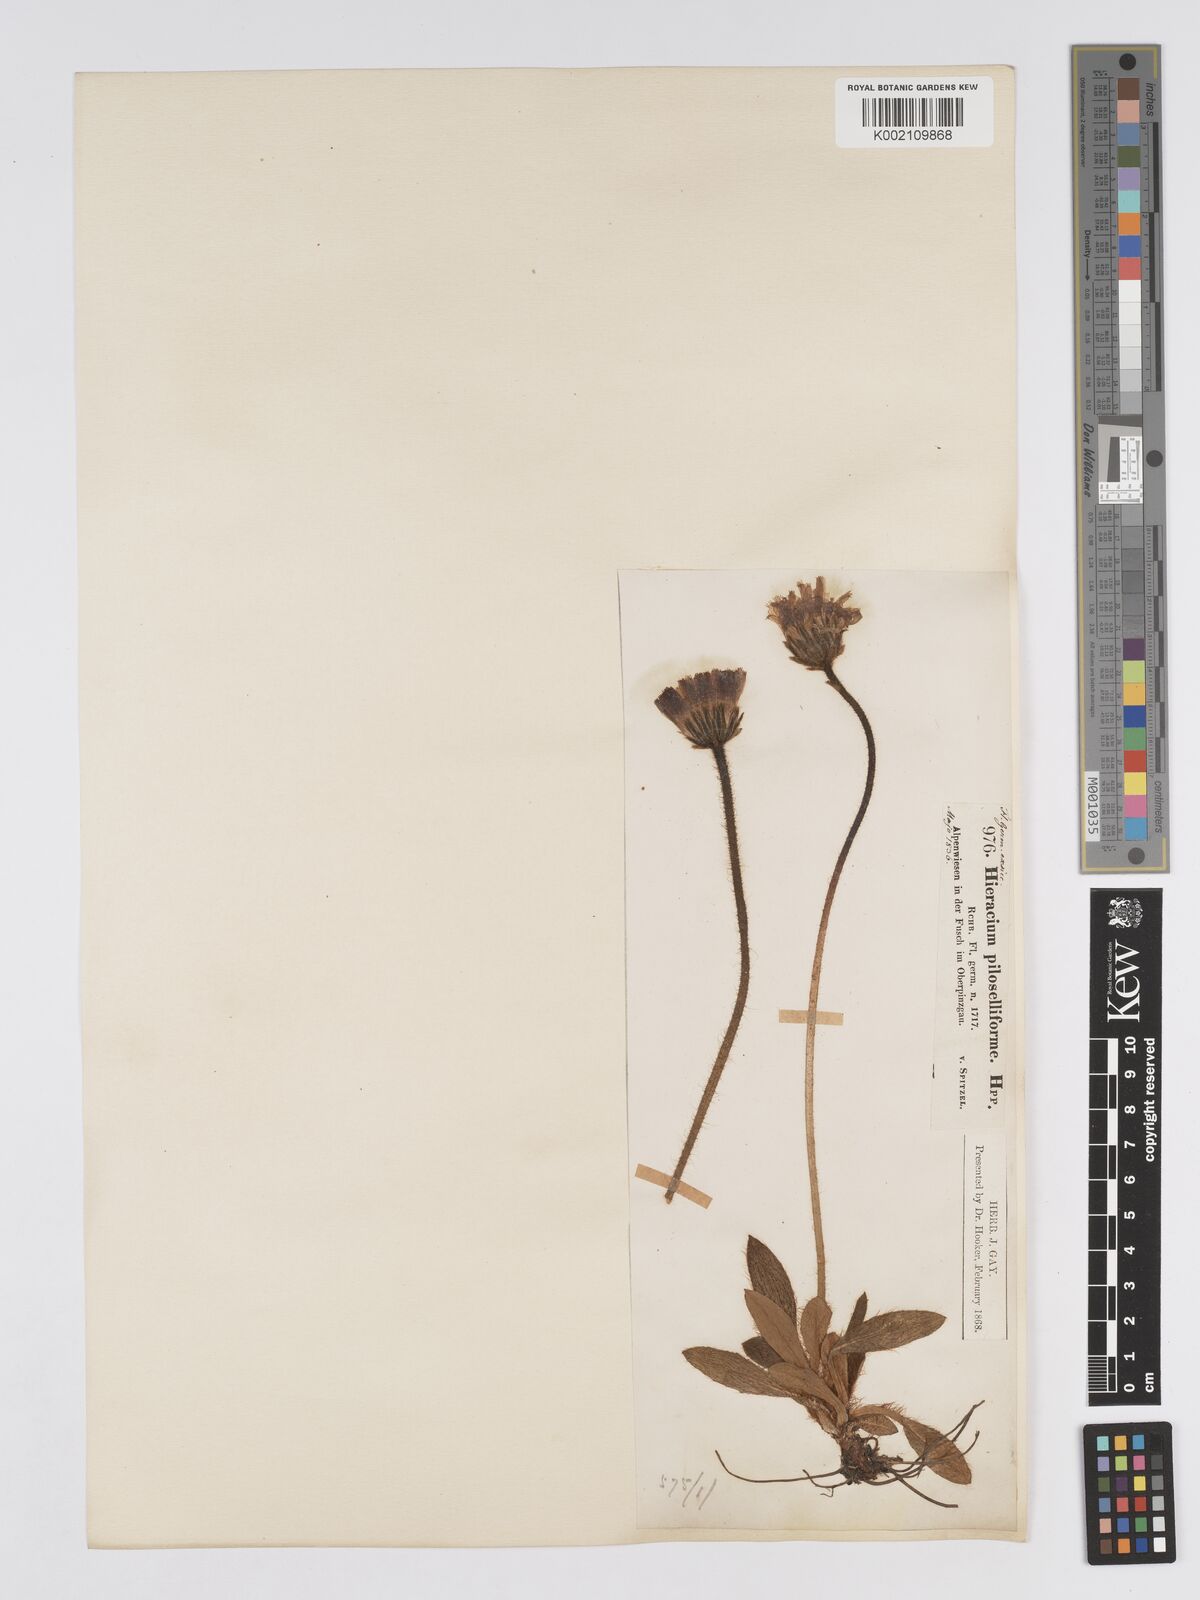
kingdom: Plantae
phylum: Tracheophyta
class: Magnoliopsida
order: Asterales
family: Asteraceae
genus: Pilosella
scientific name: Pilosella hoppeana
